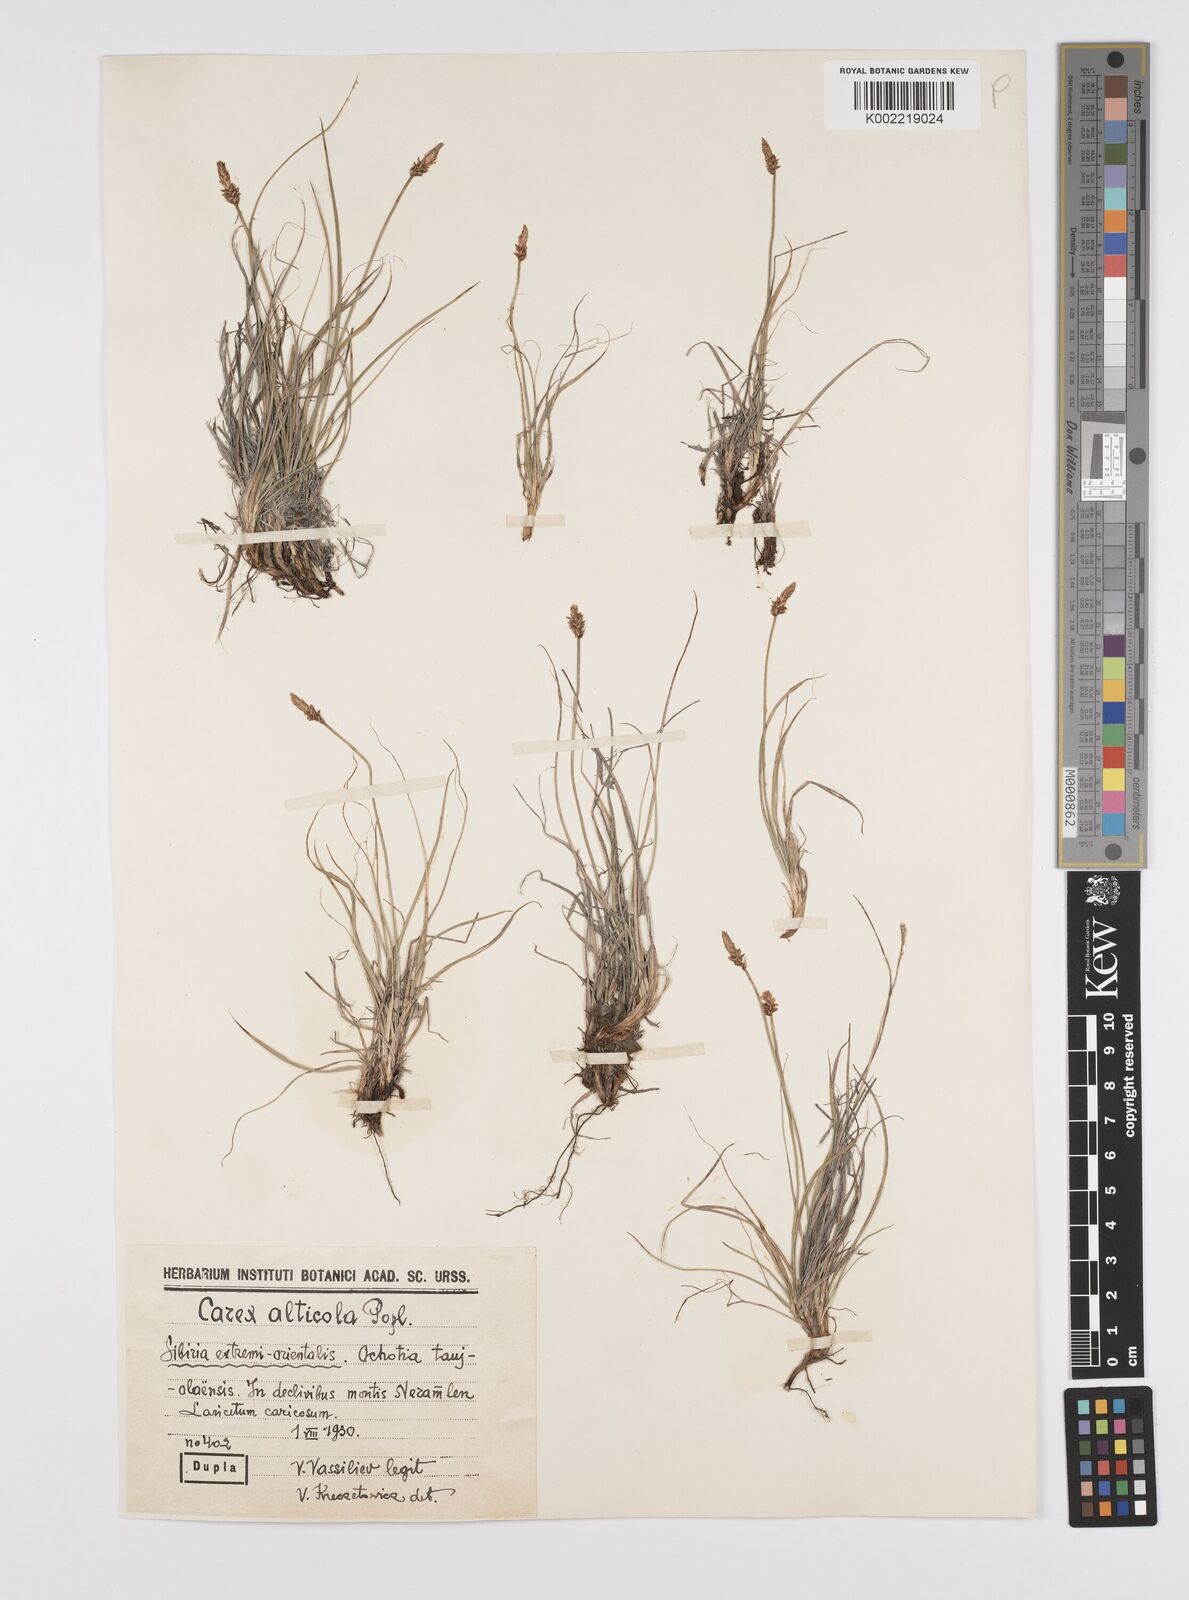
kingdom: Plantae
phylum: Tracheophyta
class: Liliopsida
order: Poales
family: Cyperaceae
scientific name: Cyperaceae
